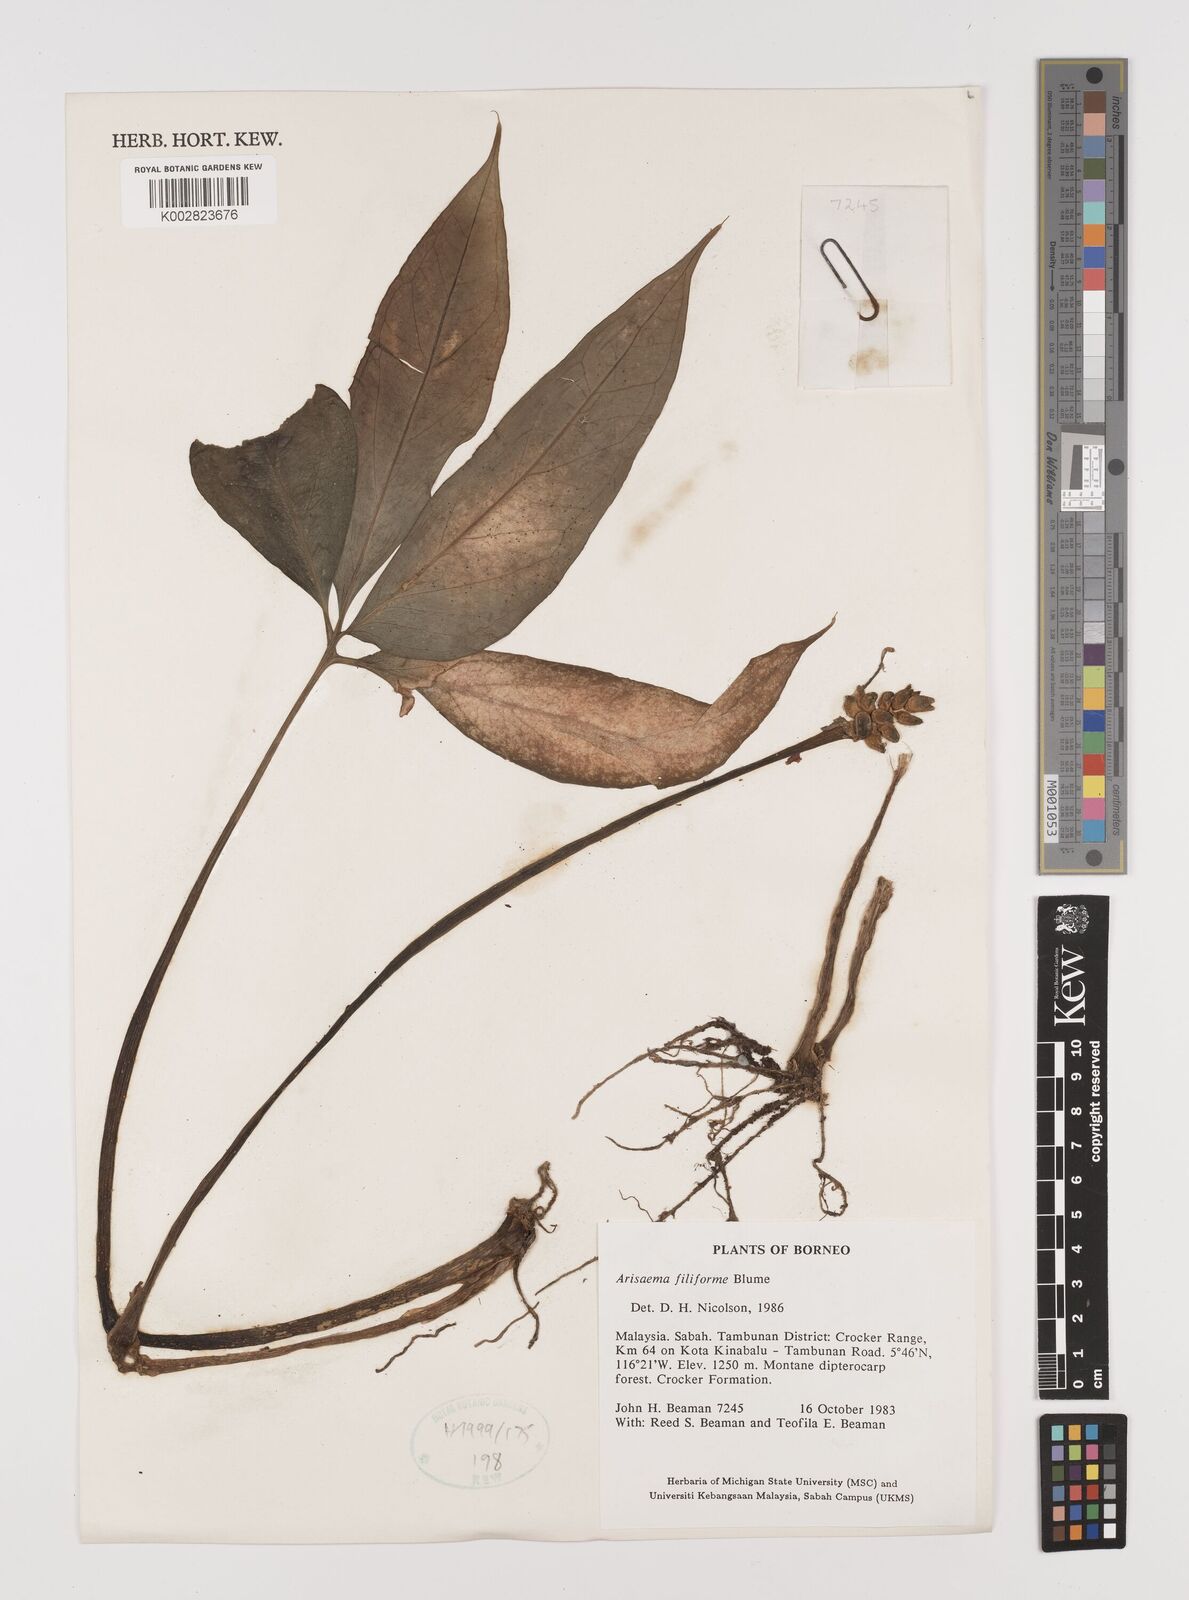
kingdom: Plantae
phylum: Tracheophyta
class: Liliopsida
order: Alismatales
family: Araceae
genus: Arisaema
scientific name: Arisaema filiforme
